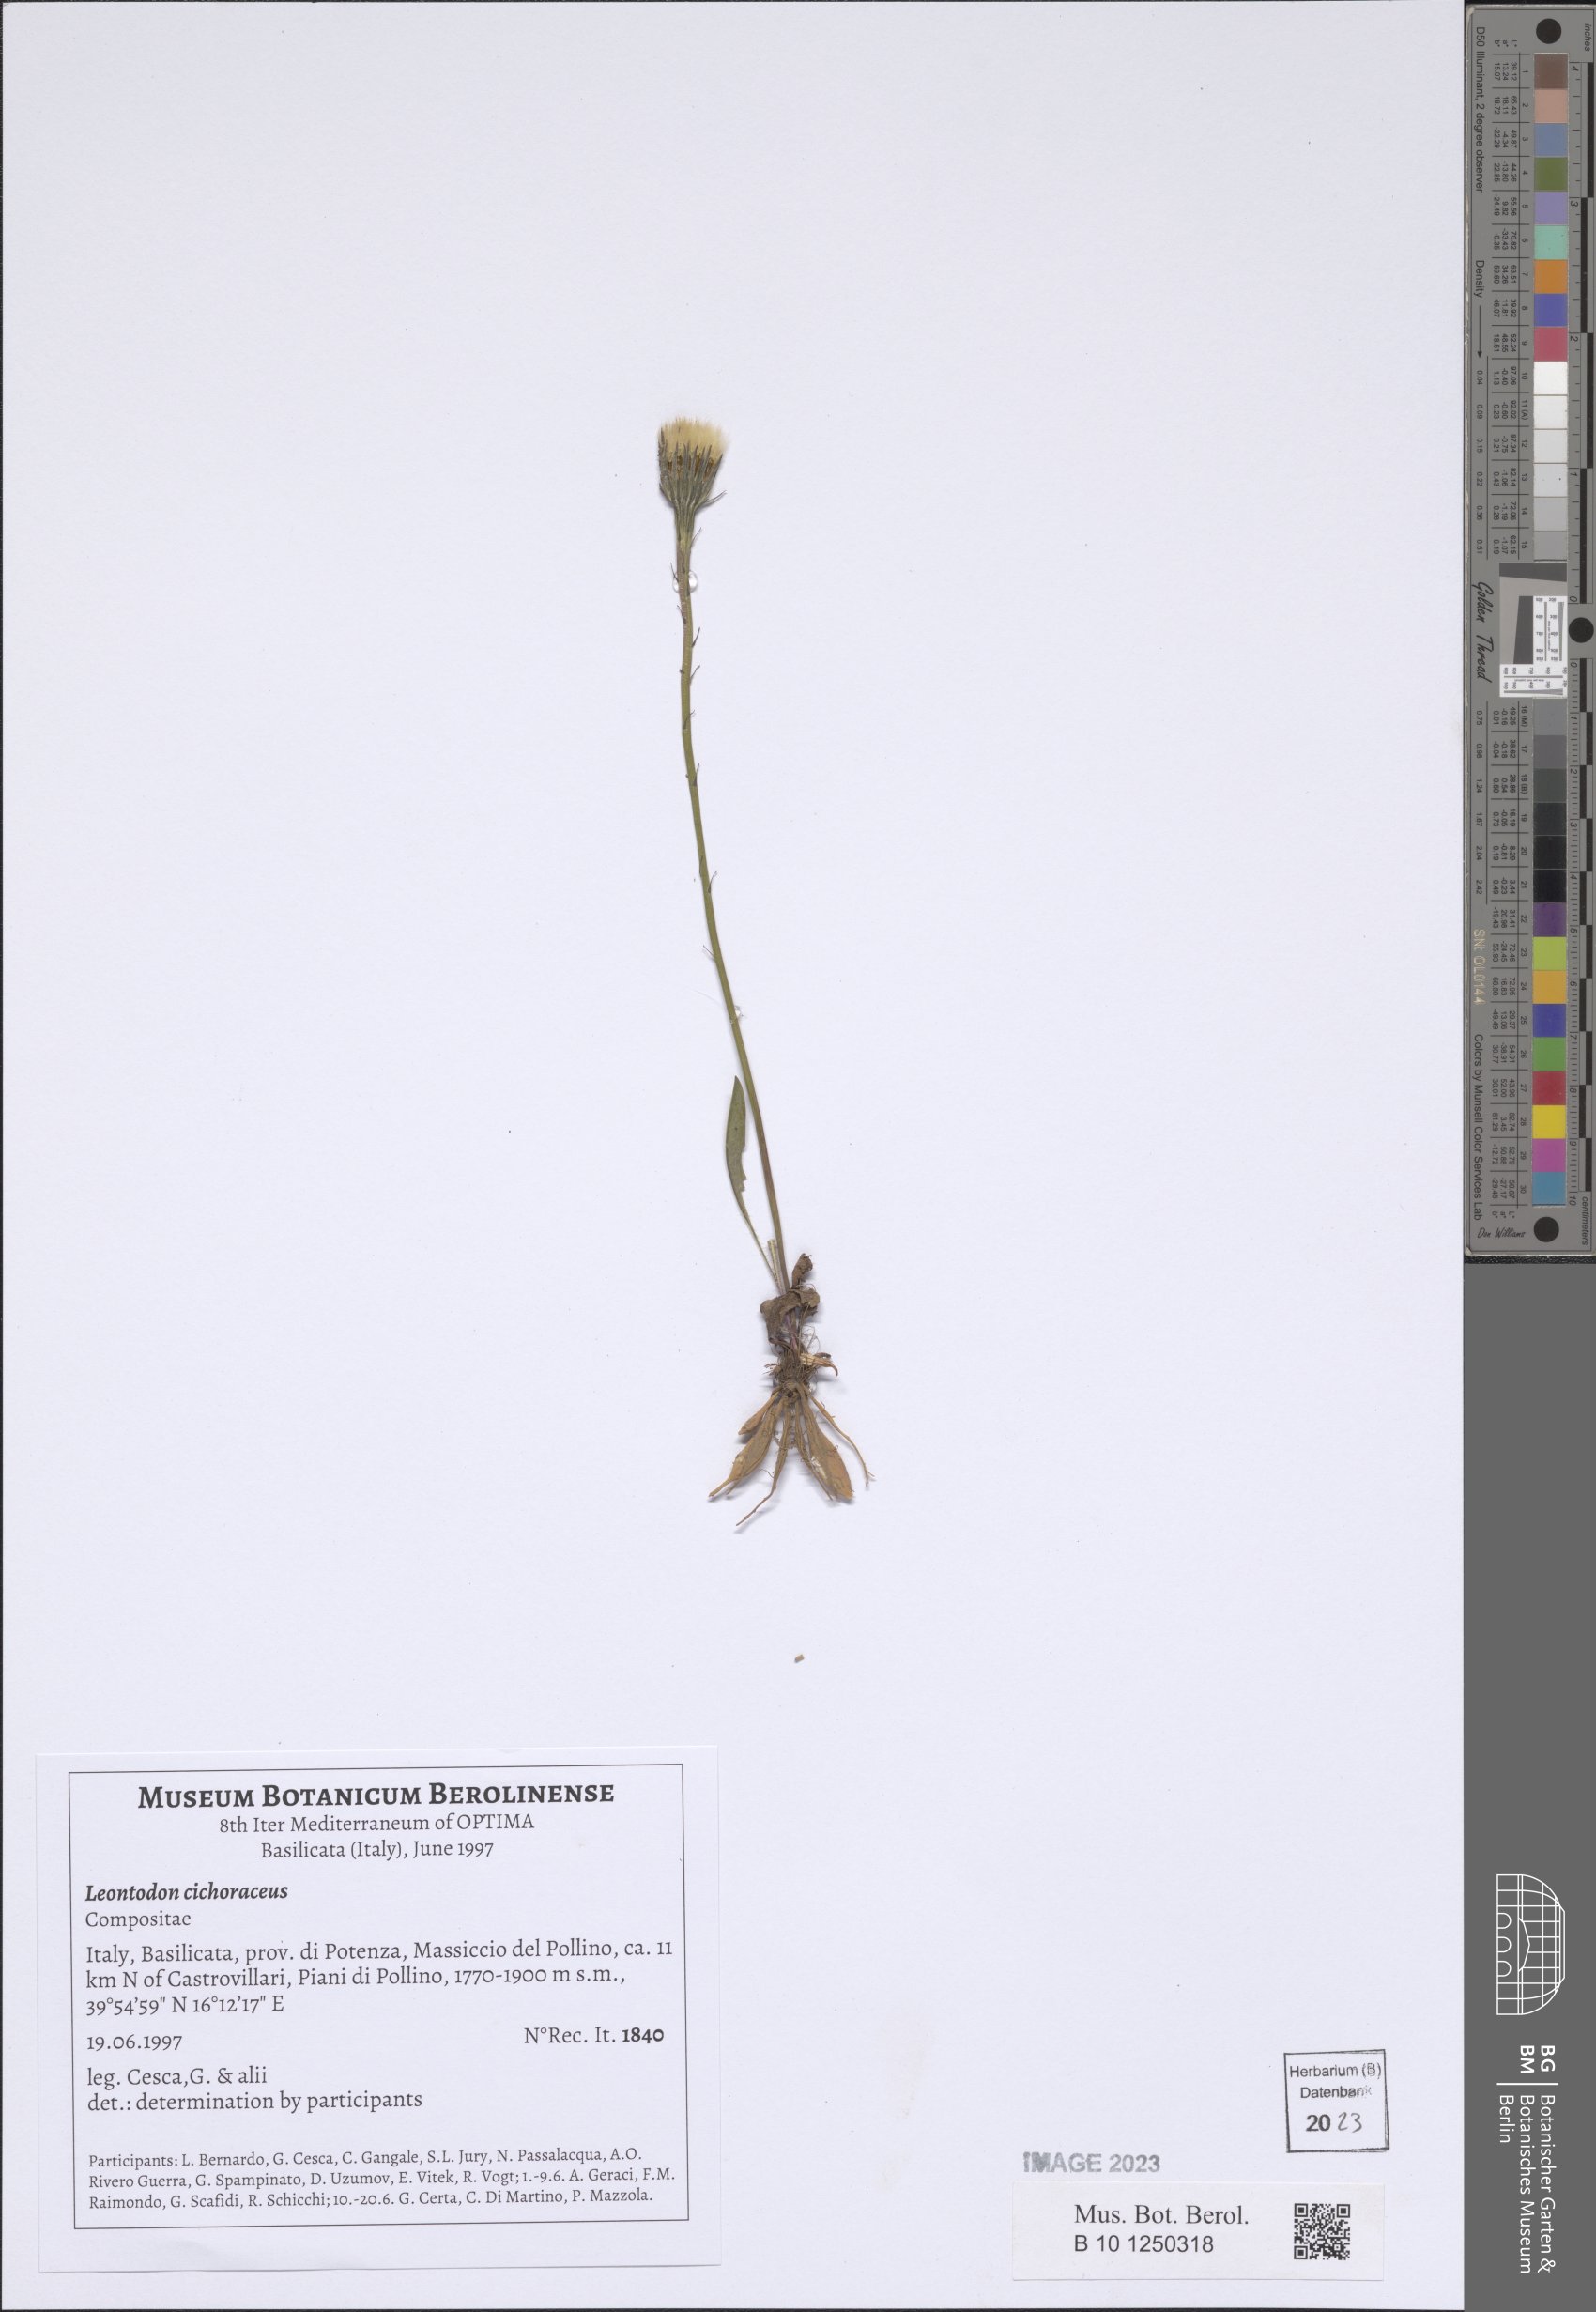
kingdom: Plantae
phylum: Tracheophyta
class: Magnoliopsida
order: Asterales
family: Asteraceae
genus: Scorzoneroides
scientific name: Scorzoneroides cichoriacea
